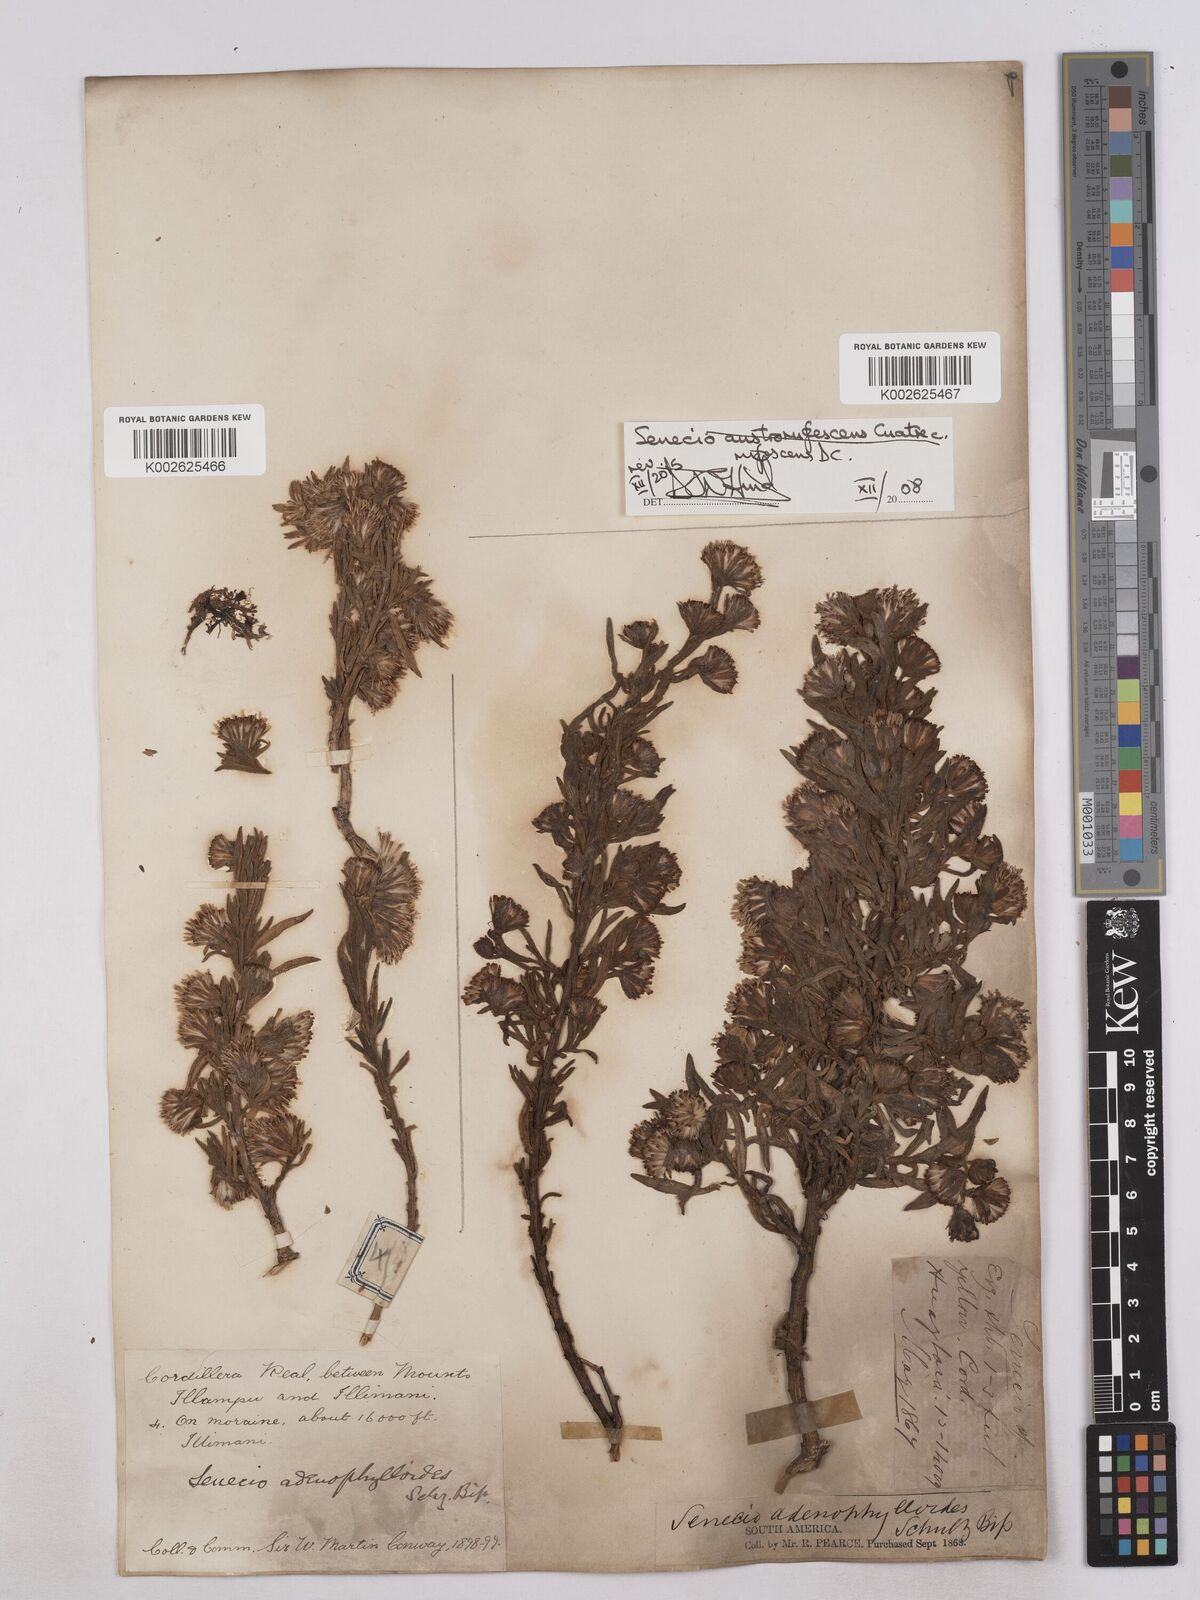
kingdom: Plantae
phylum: Tracheophyta
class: Magnoliopsida
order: Asterales
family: Asteraceae
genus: Culcitium
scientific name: Culcitium canescens
